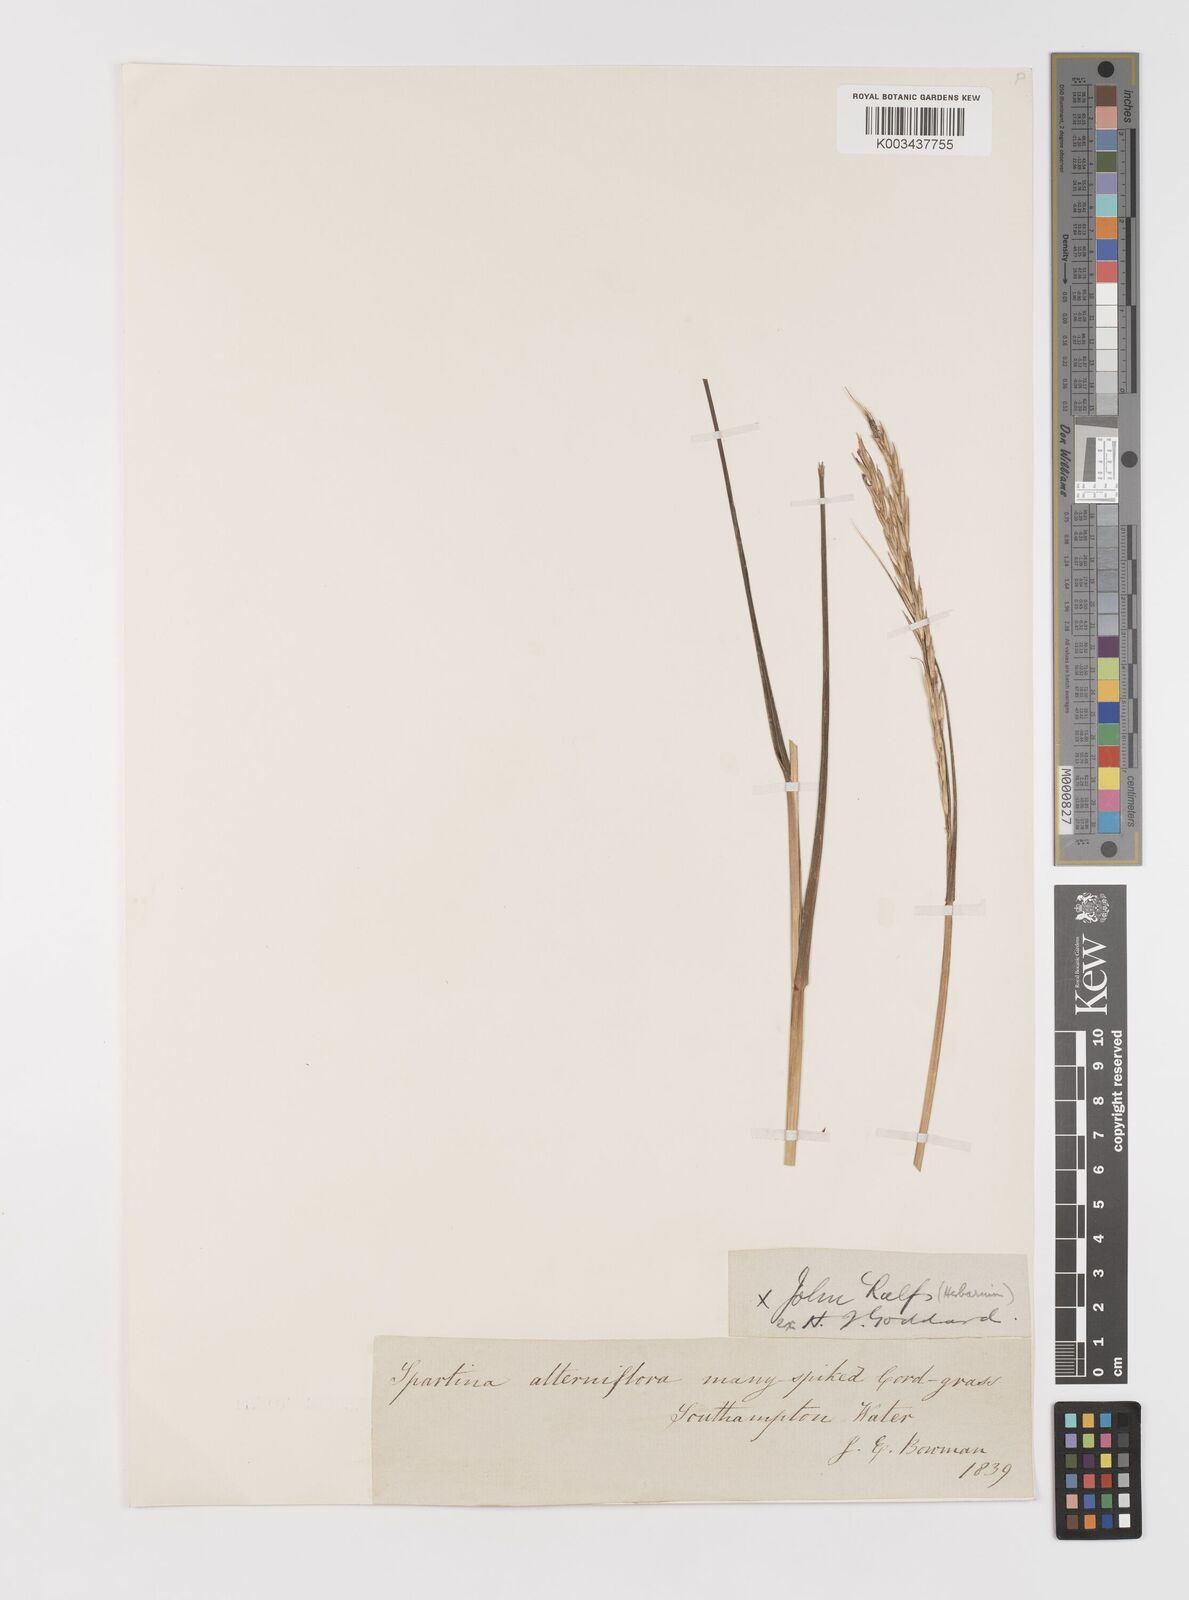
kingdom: Plantae
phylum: Tracheophyta
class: Liliopsida
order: Poales
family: Poaceae
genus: Sporobolus
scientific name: Sporobolus alterniflorus
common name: Atlantic cordgrass
